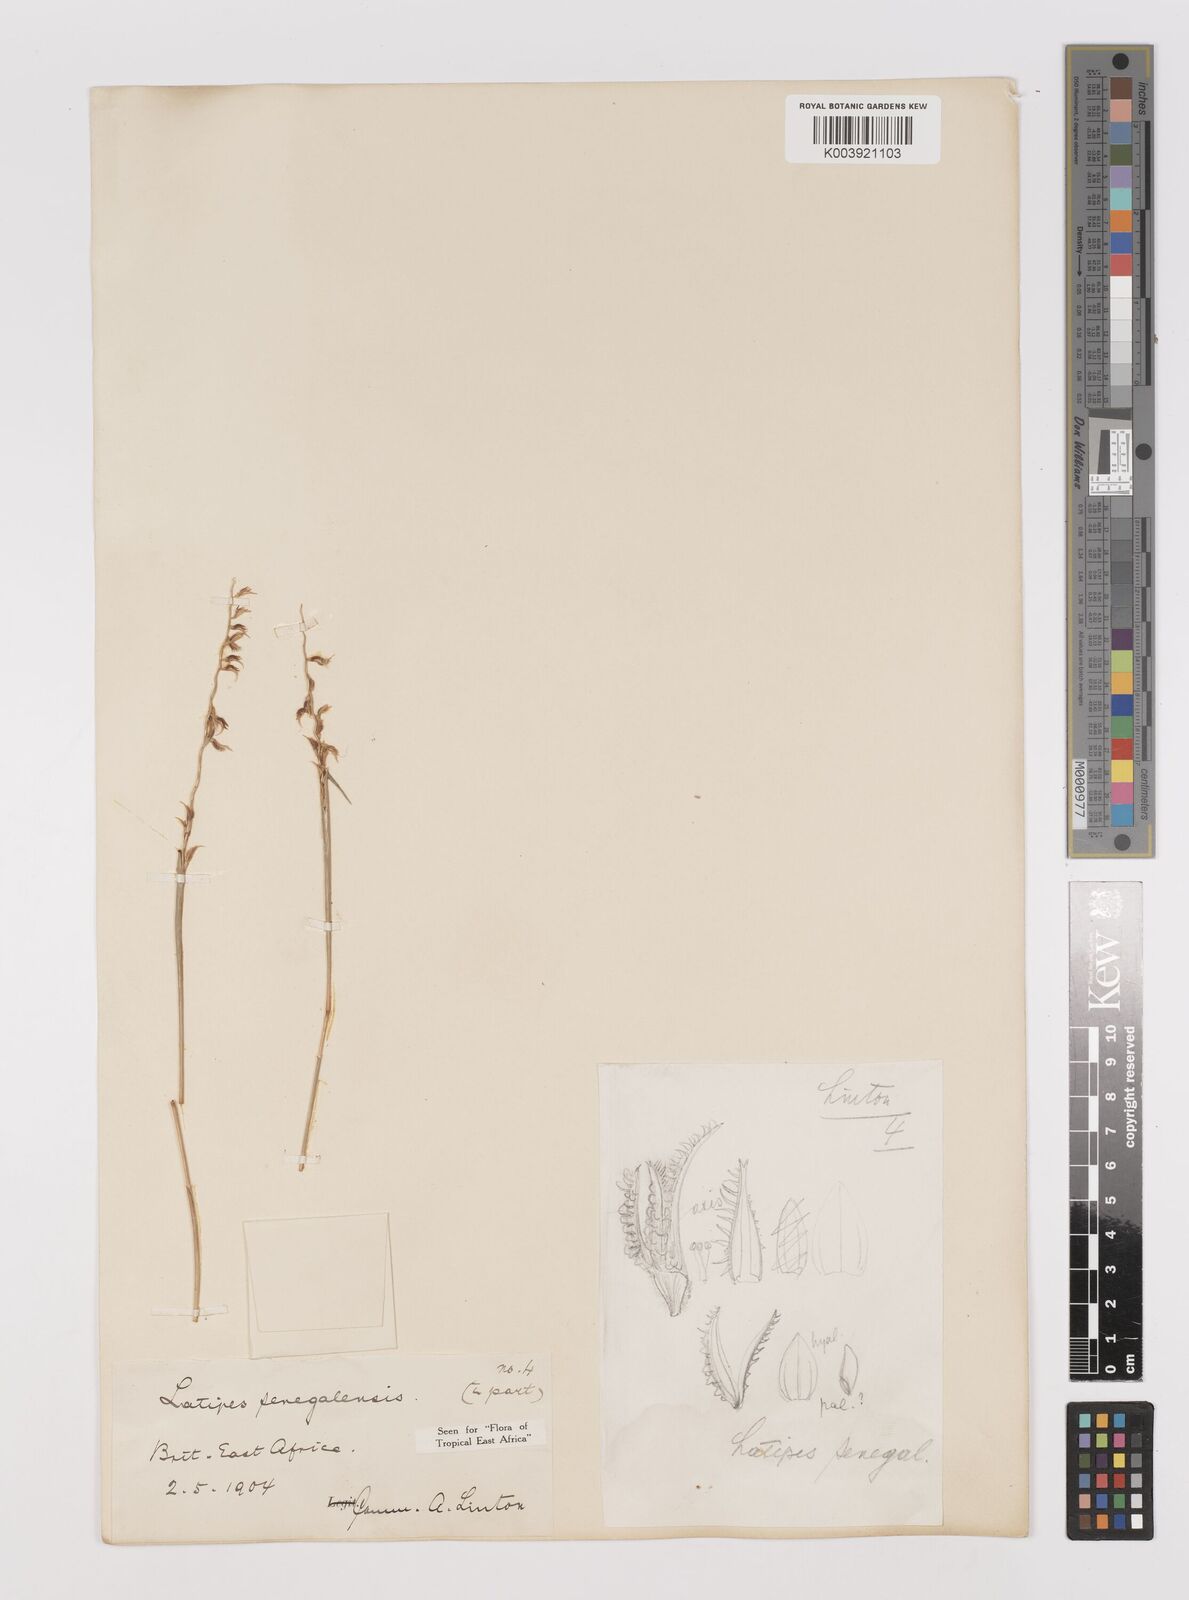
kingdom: Plantae
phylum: Tracheophyta
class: Liliopsida
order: Poales
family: Poaceae
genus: Leptothrium
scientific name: Leptothrium senegalense
